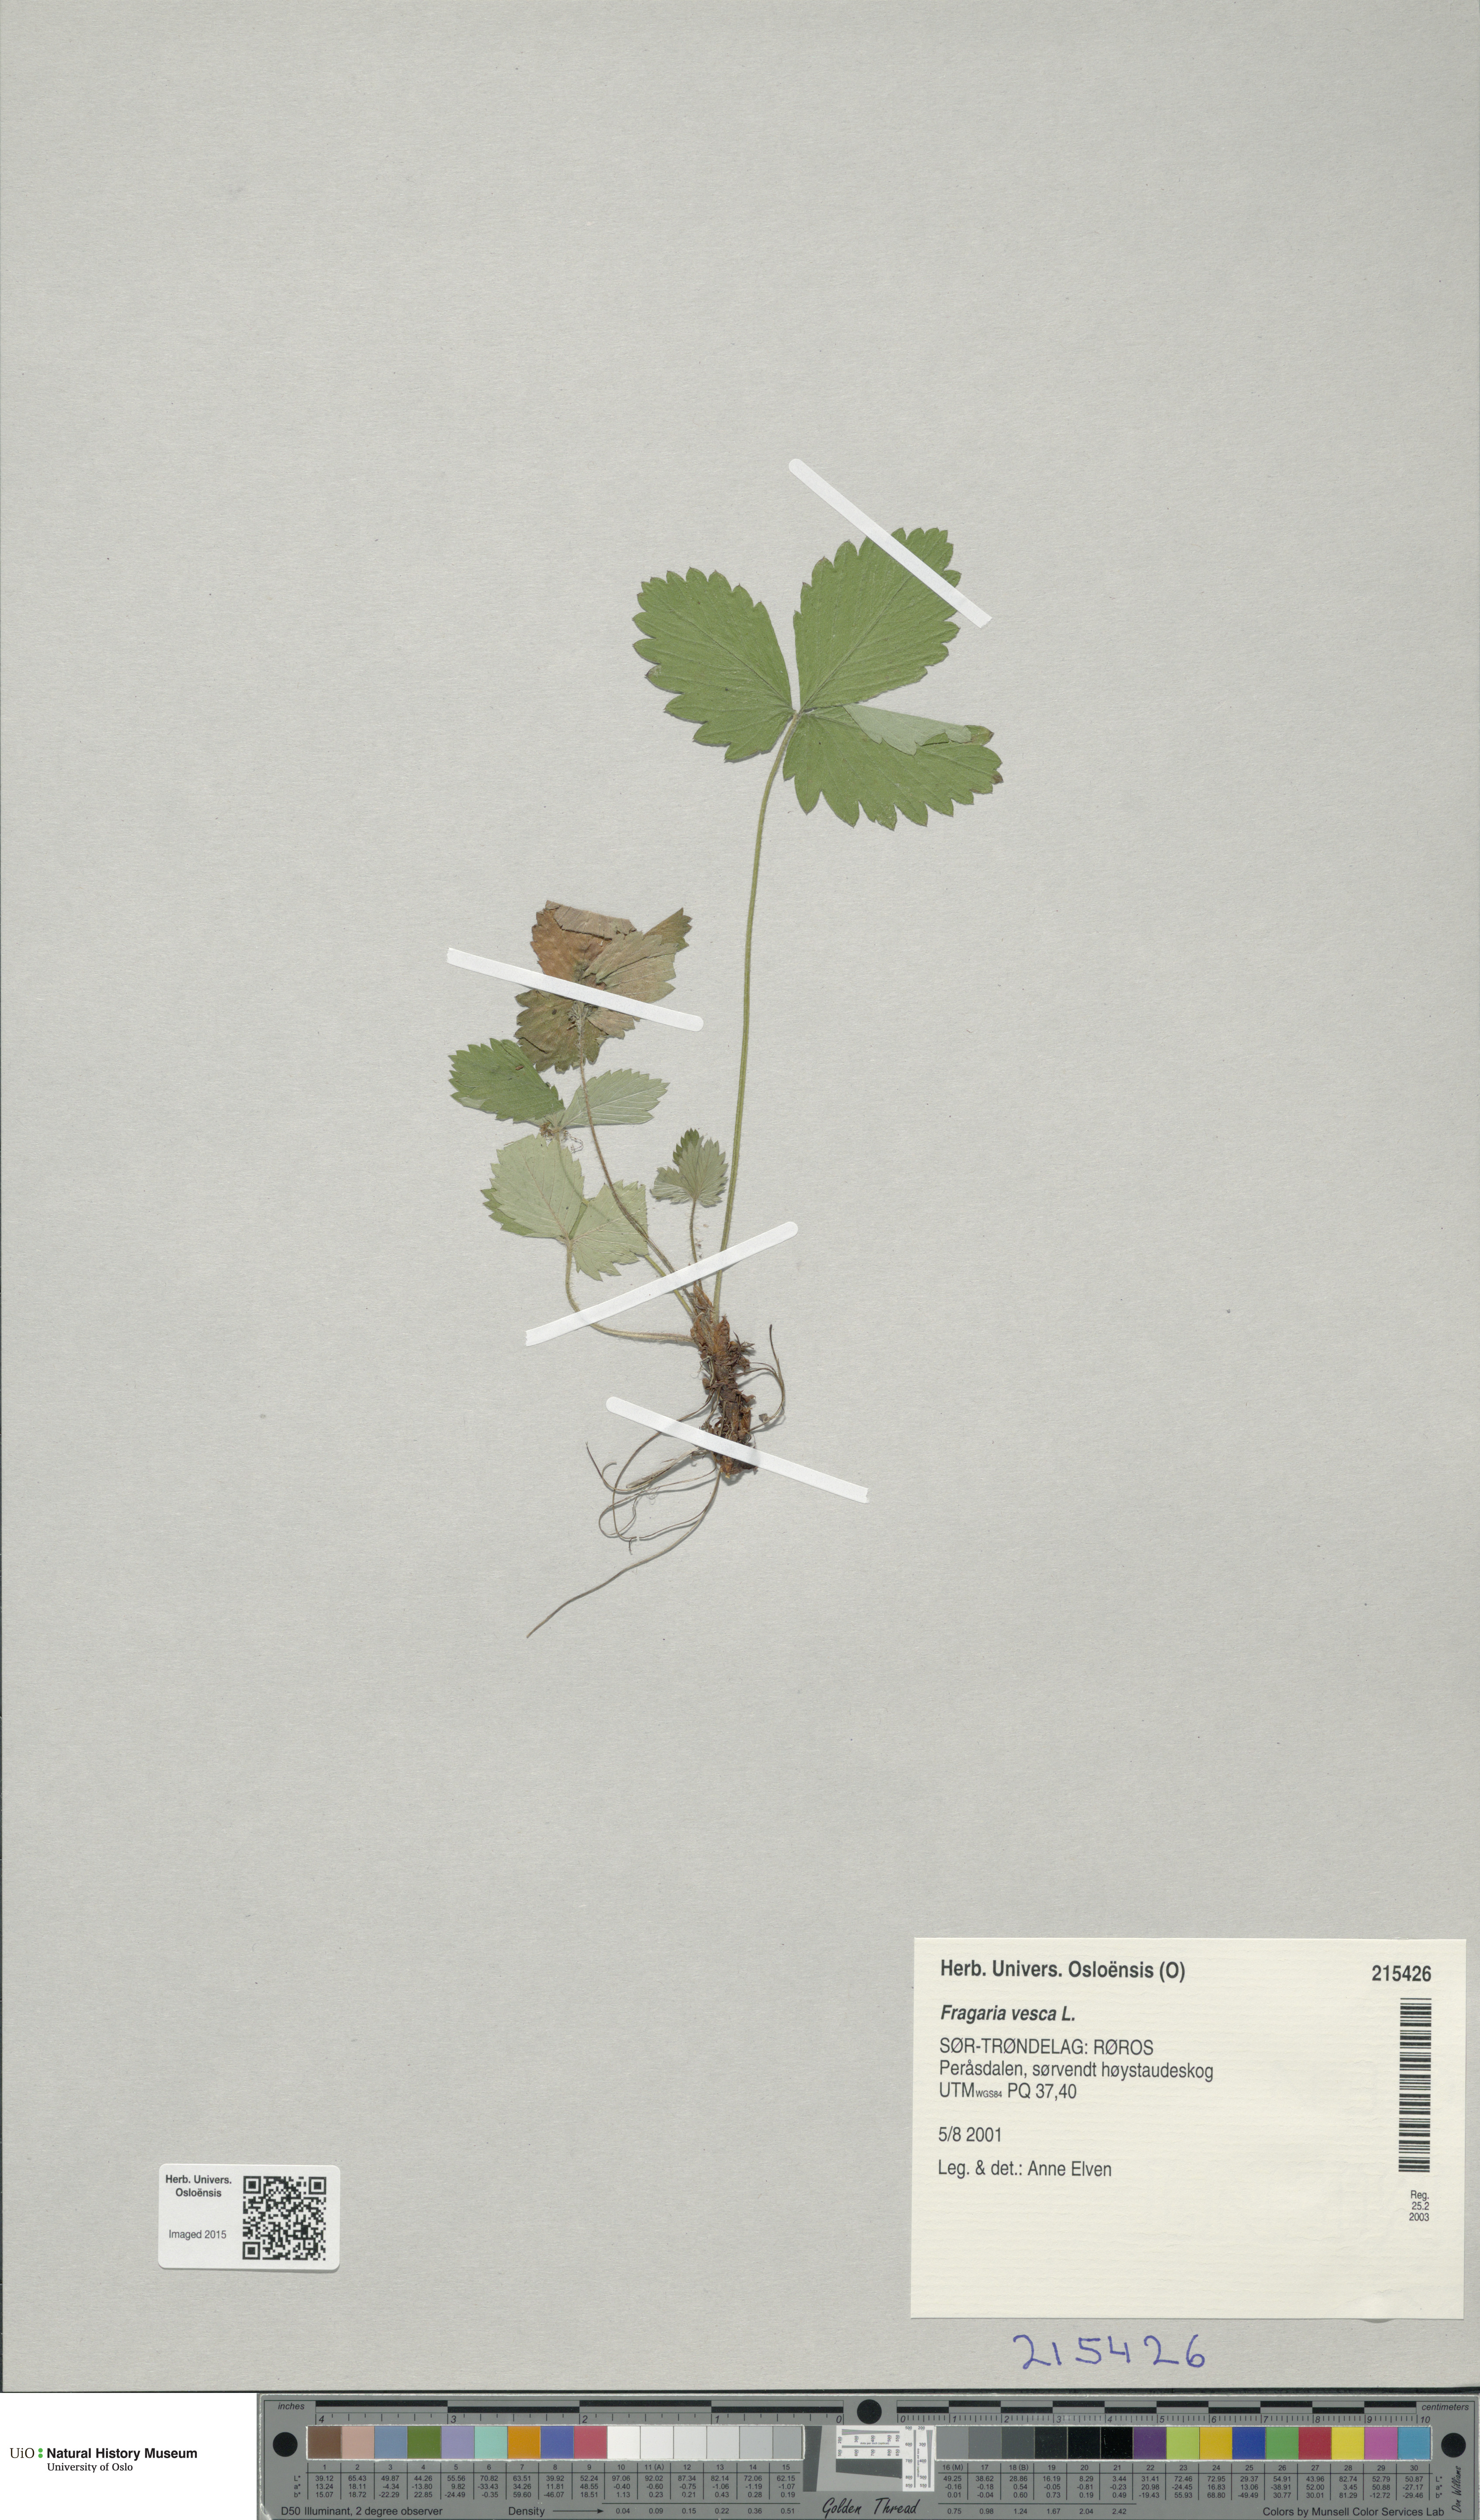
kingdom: Plantae
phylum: Tracheophyta
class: Magnoliopsida
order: Rosales
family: Rosaceae
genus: Fragaria
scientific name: Fragaria vesca
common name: Wild strawberry
